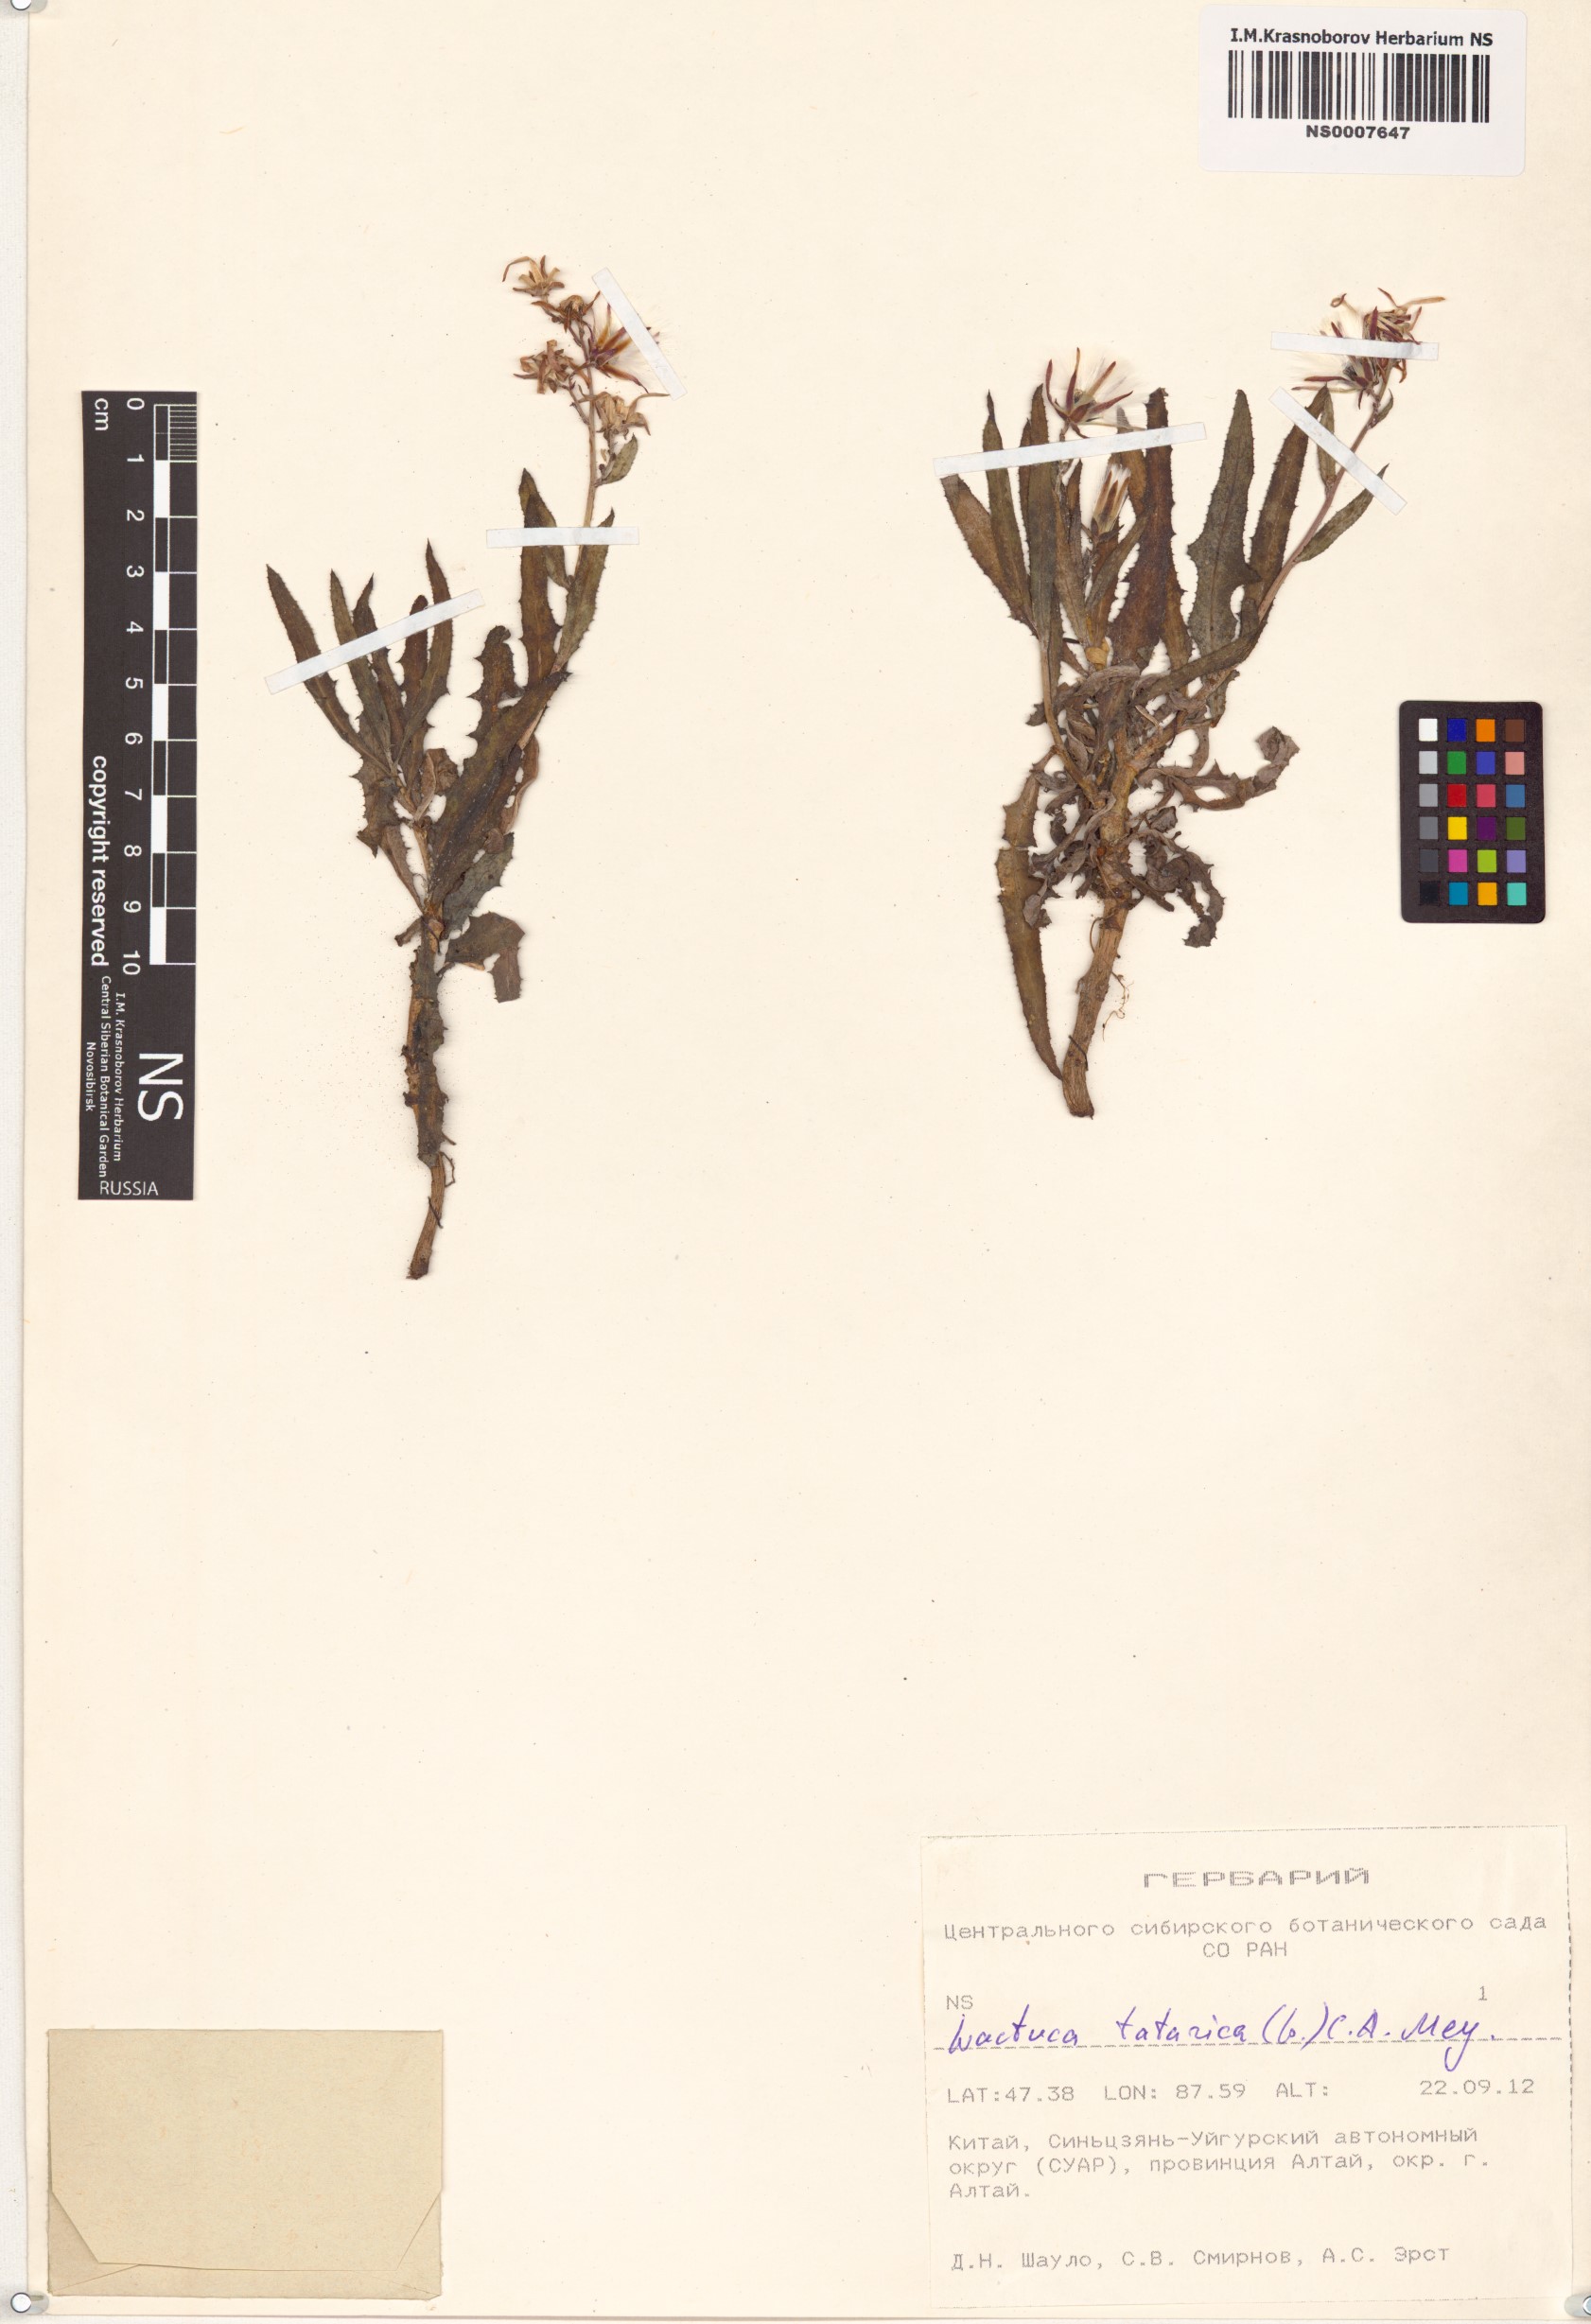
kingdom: Plantae
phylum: Tracheophyta
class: Magnoliopsida
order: Asterales
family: Asteraceae
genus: Lactuca
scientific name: Lactuca tatarica
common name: Blue lettuce
